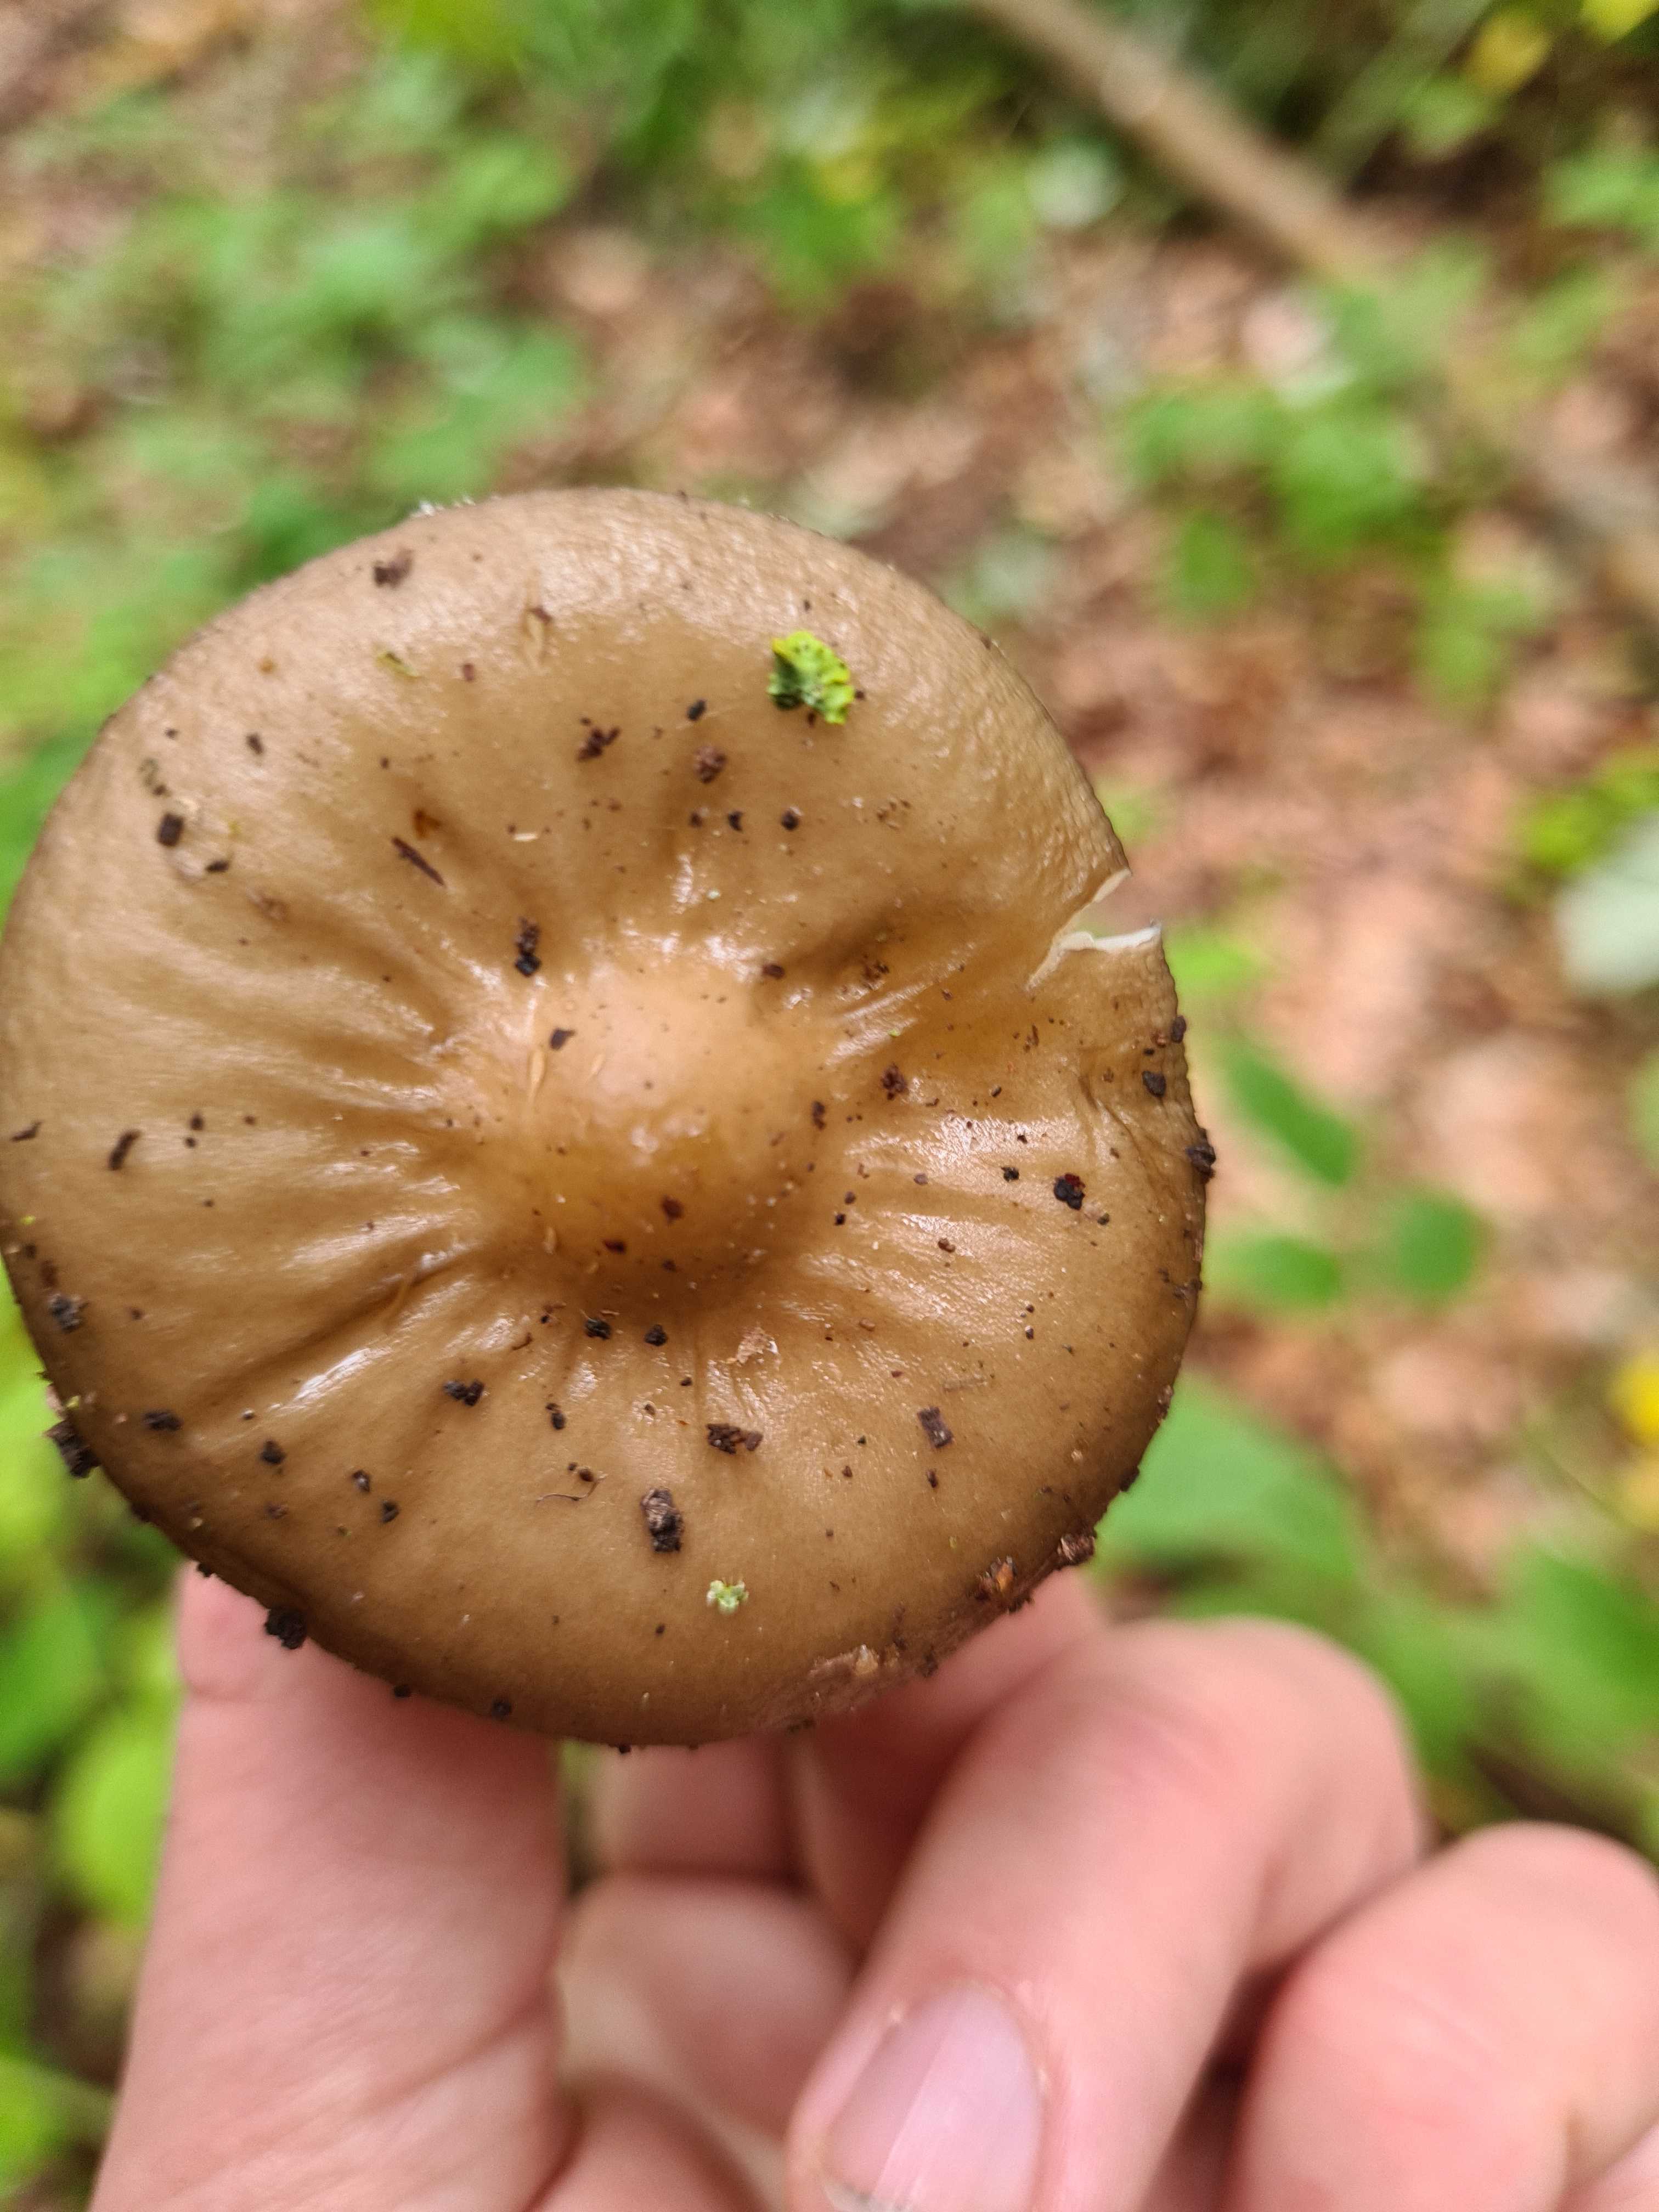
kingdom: Fungi
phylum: Basidiomycota
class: Agaricomycetes
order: Agaricales
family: Physalacriaceae
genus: Hymenopellis
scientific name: Hymenopellis radicata
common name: almindelig pælerodshat
